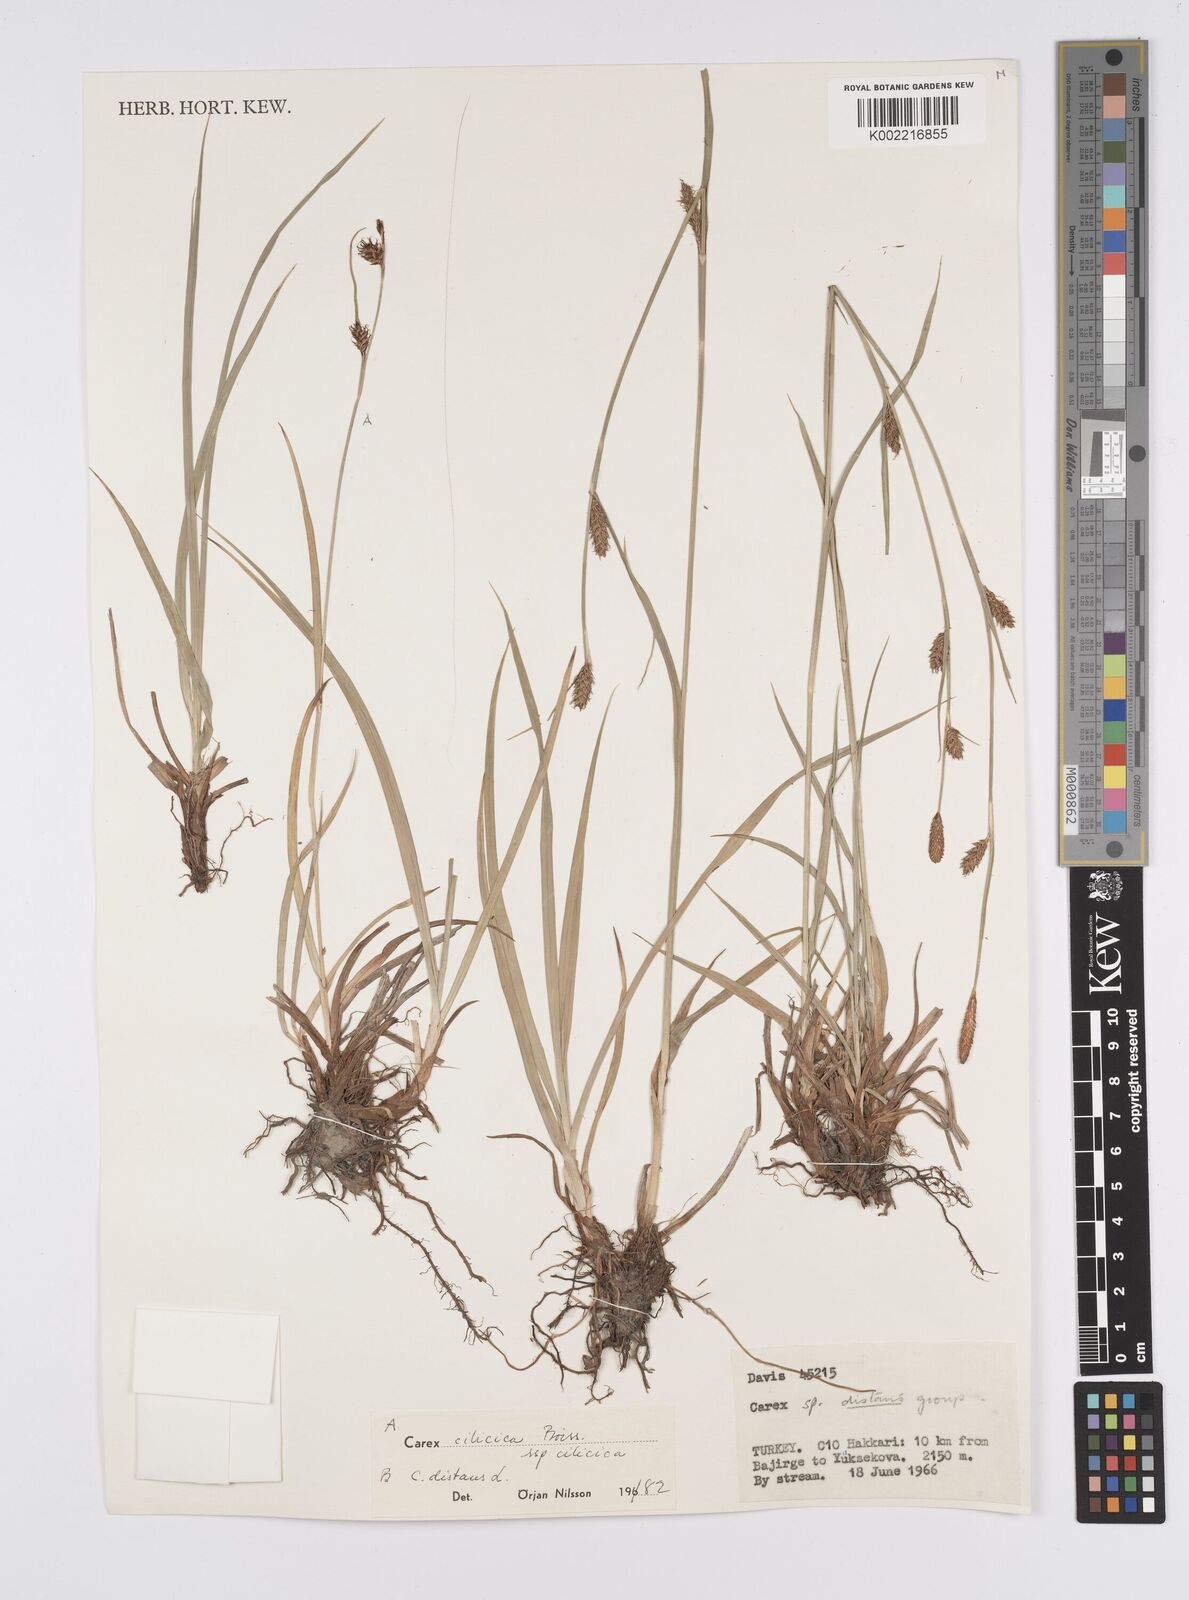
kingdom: Plantae
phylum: Tracheophyta
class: Liliopsida
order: Poales
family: Cyperaceae
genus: Carex
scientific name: Carex distans
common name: Distant sedge
